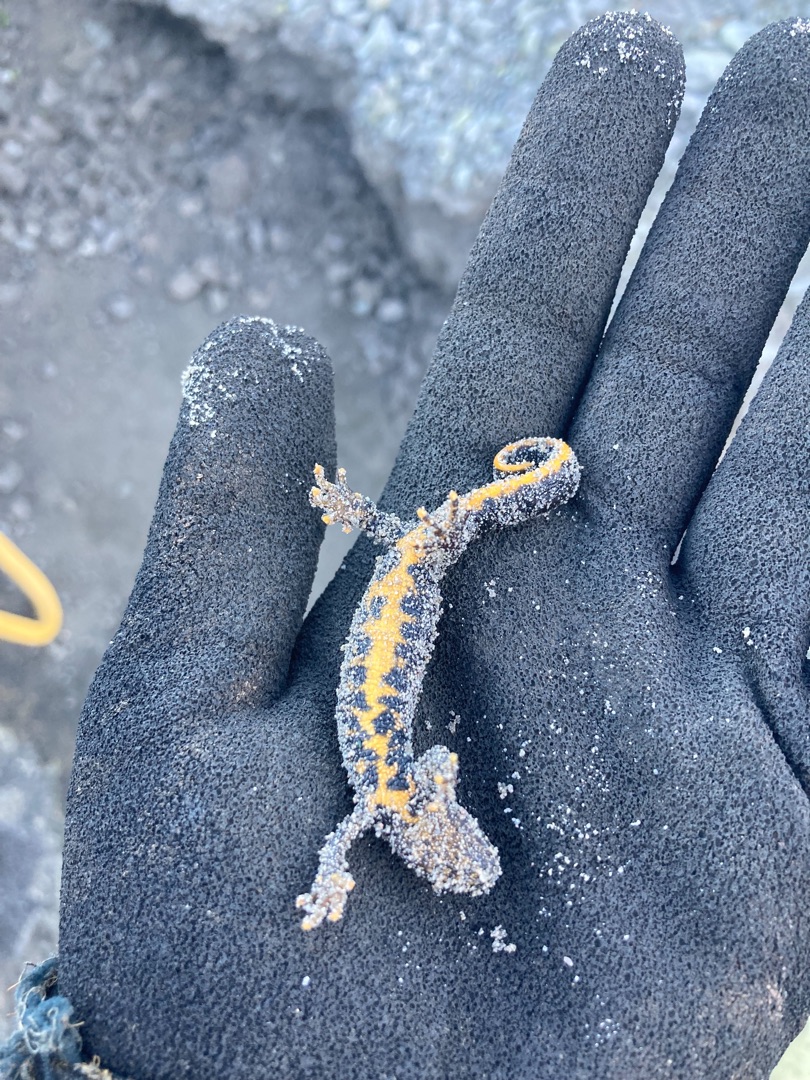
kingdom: Animalia
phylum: Chordata
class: Amphibia
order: Caudata
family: Salamandridae
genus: Triturus
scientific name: Triturus cristatus
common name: Stor vandsalamander
